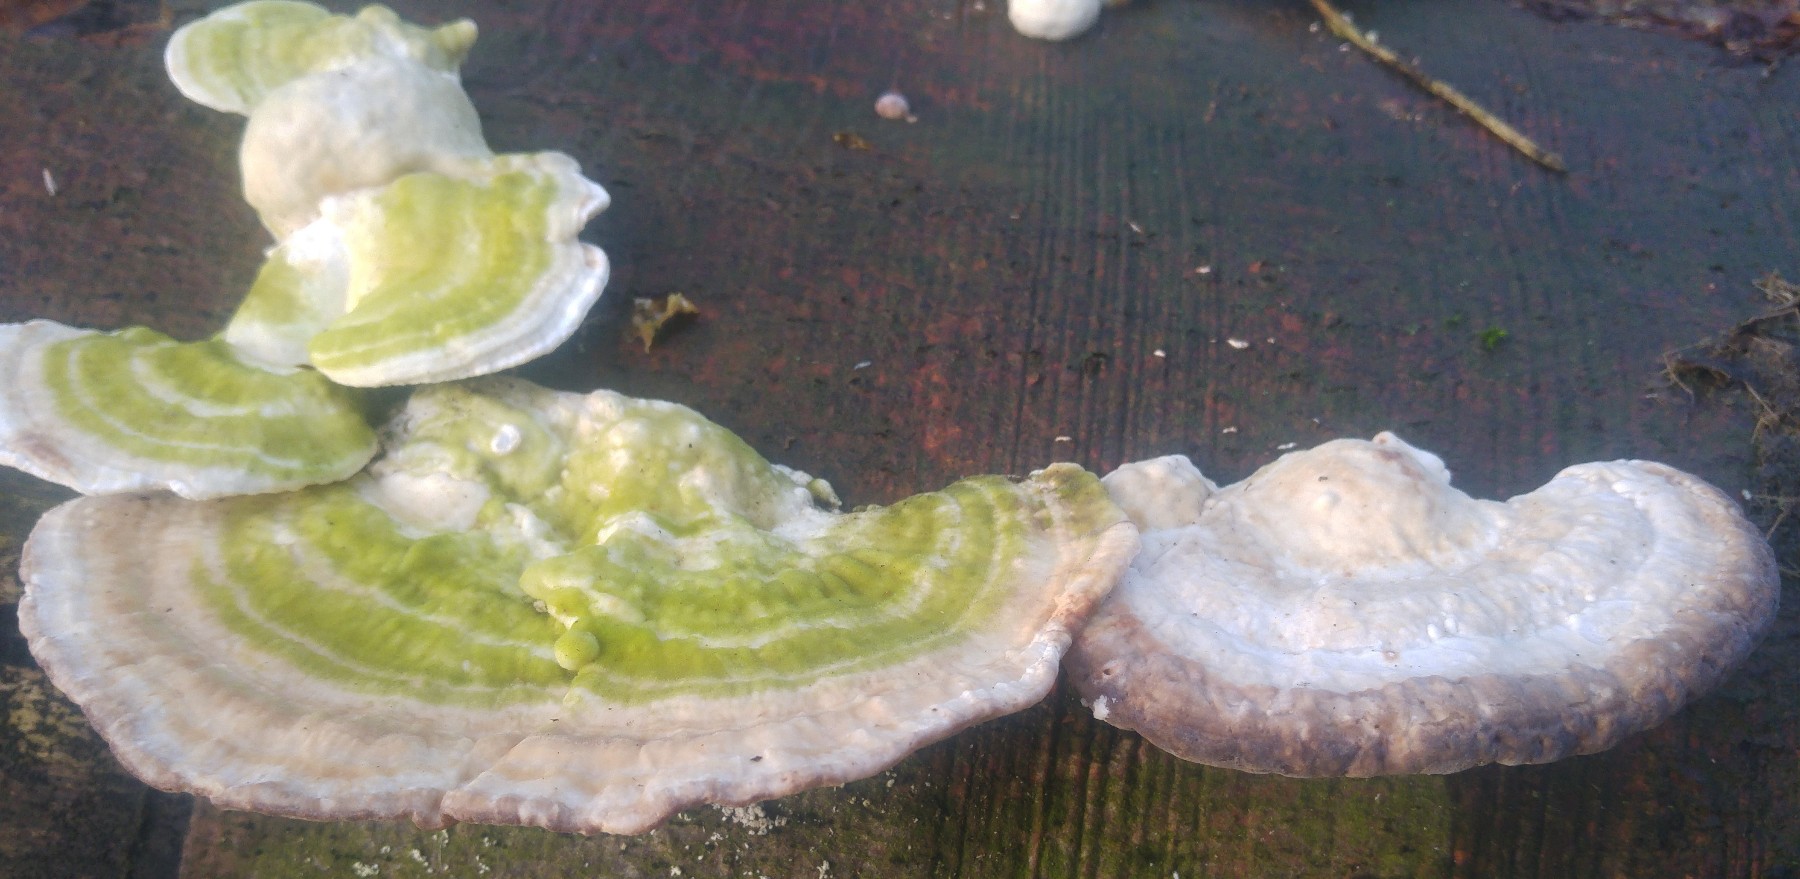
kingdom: Fungi
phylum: Basidiomycota
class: Agaricomycetes
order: Polyporales
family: Polyporaceae
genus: Trametes
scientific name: Trametes hirsuta
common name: håret læderporesvamp
